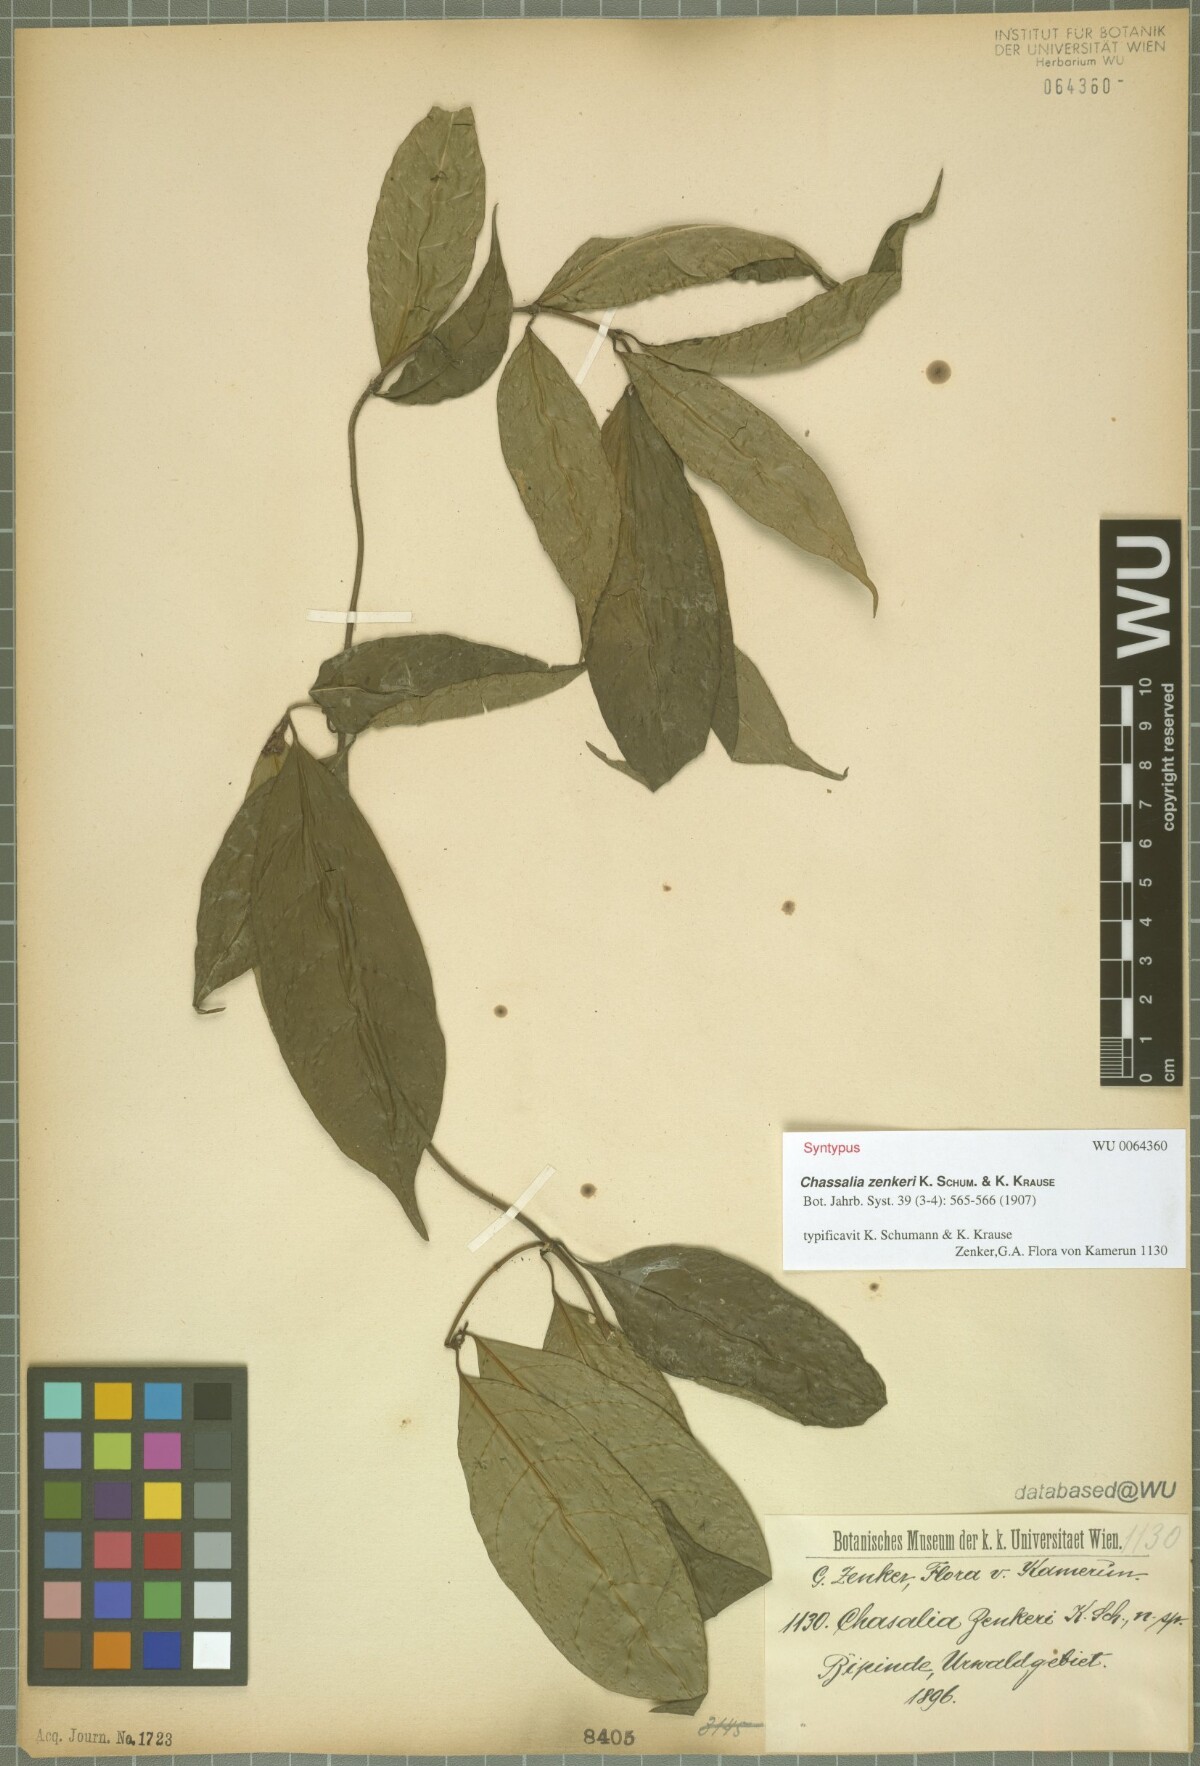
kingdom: Plantae
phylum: Tracheophyta
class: Magnoliopsida
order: Gentianales
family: Rubiaceae
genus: Chassalia
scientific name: Chassalia zenkeri
